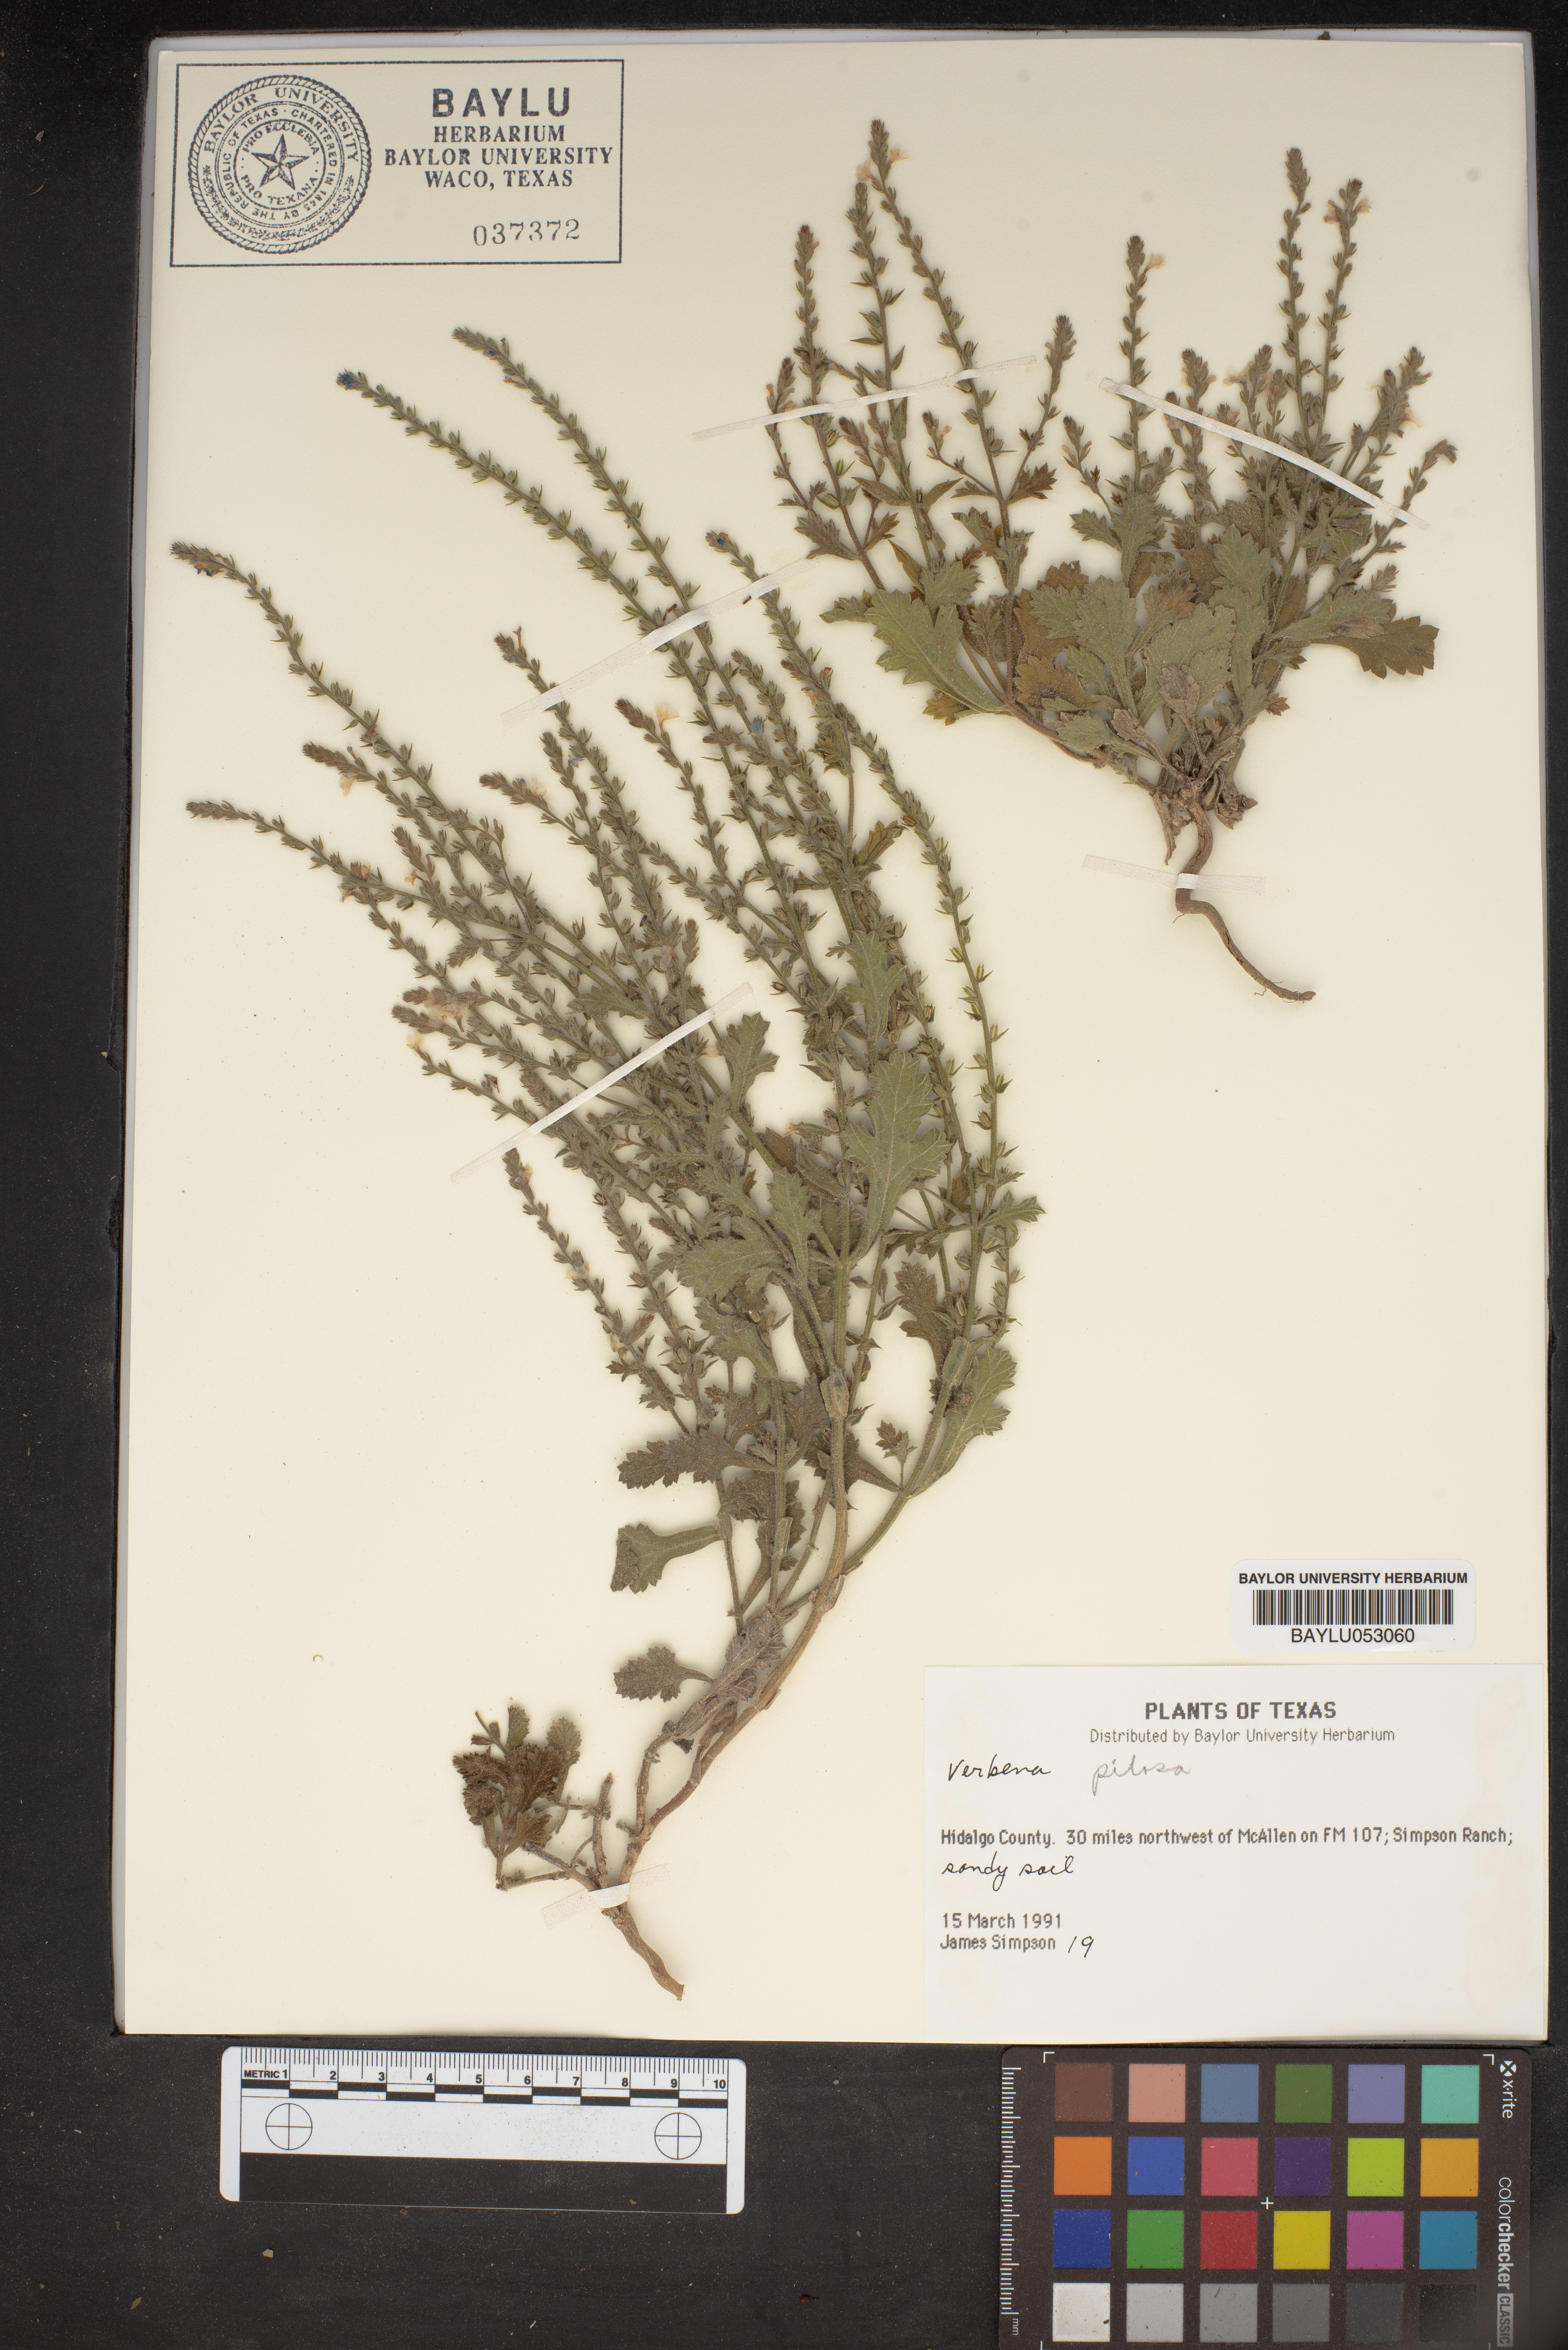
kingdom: Plantae
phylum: Tracheophyta
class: Magnoliopsida
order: Lamiales
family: Verbenaceae
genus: Verbena
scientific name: Verbena
